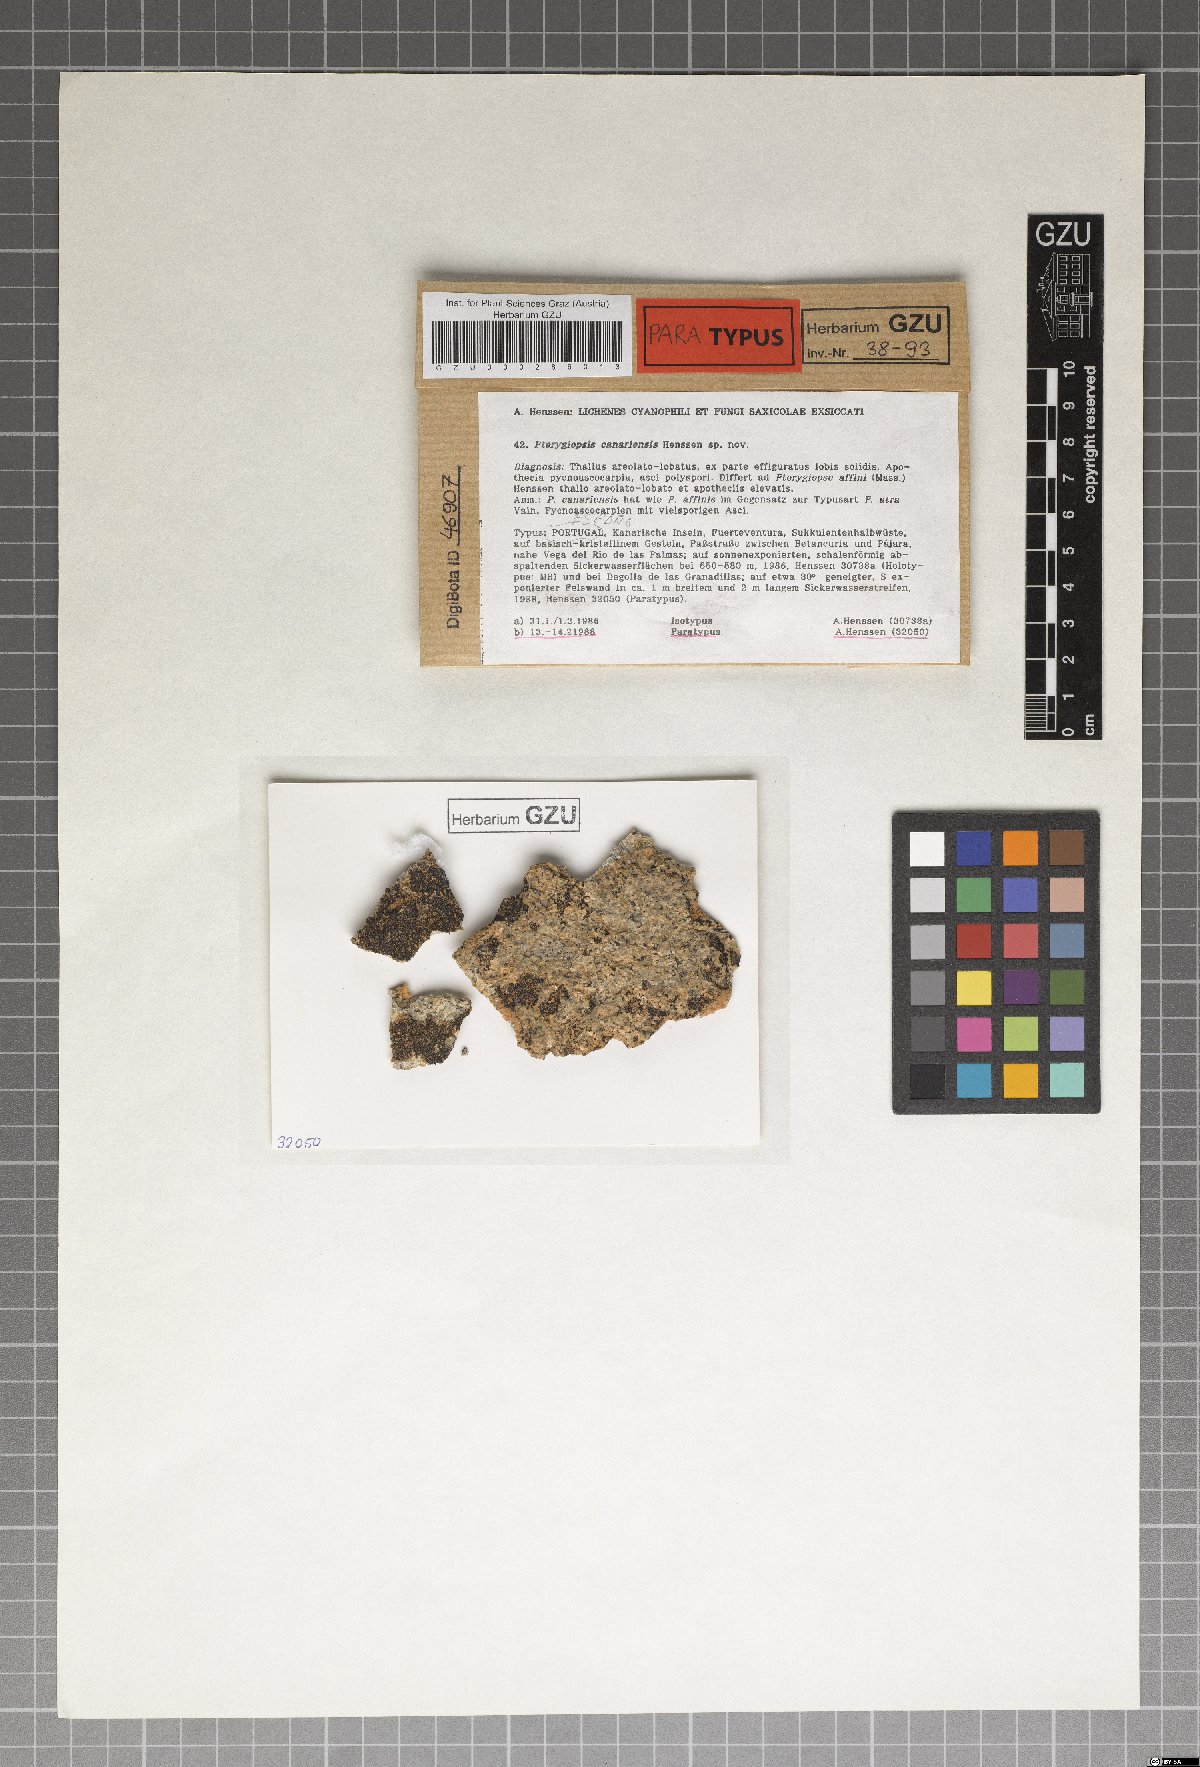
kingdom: Fungi
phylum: Ascomycota
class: Lichinomycetes
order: Lichinales
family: Lichinaceae
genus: Pterygiopsis
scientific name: Pterygiopsis canariensis
